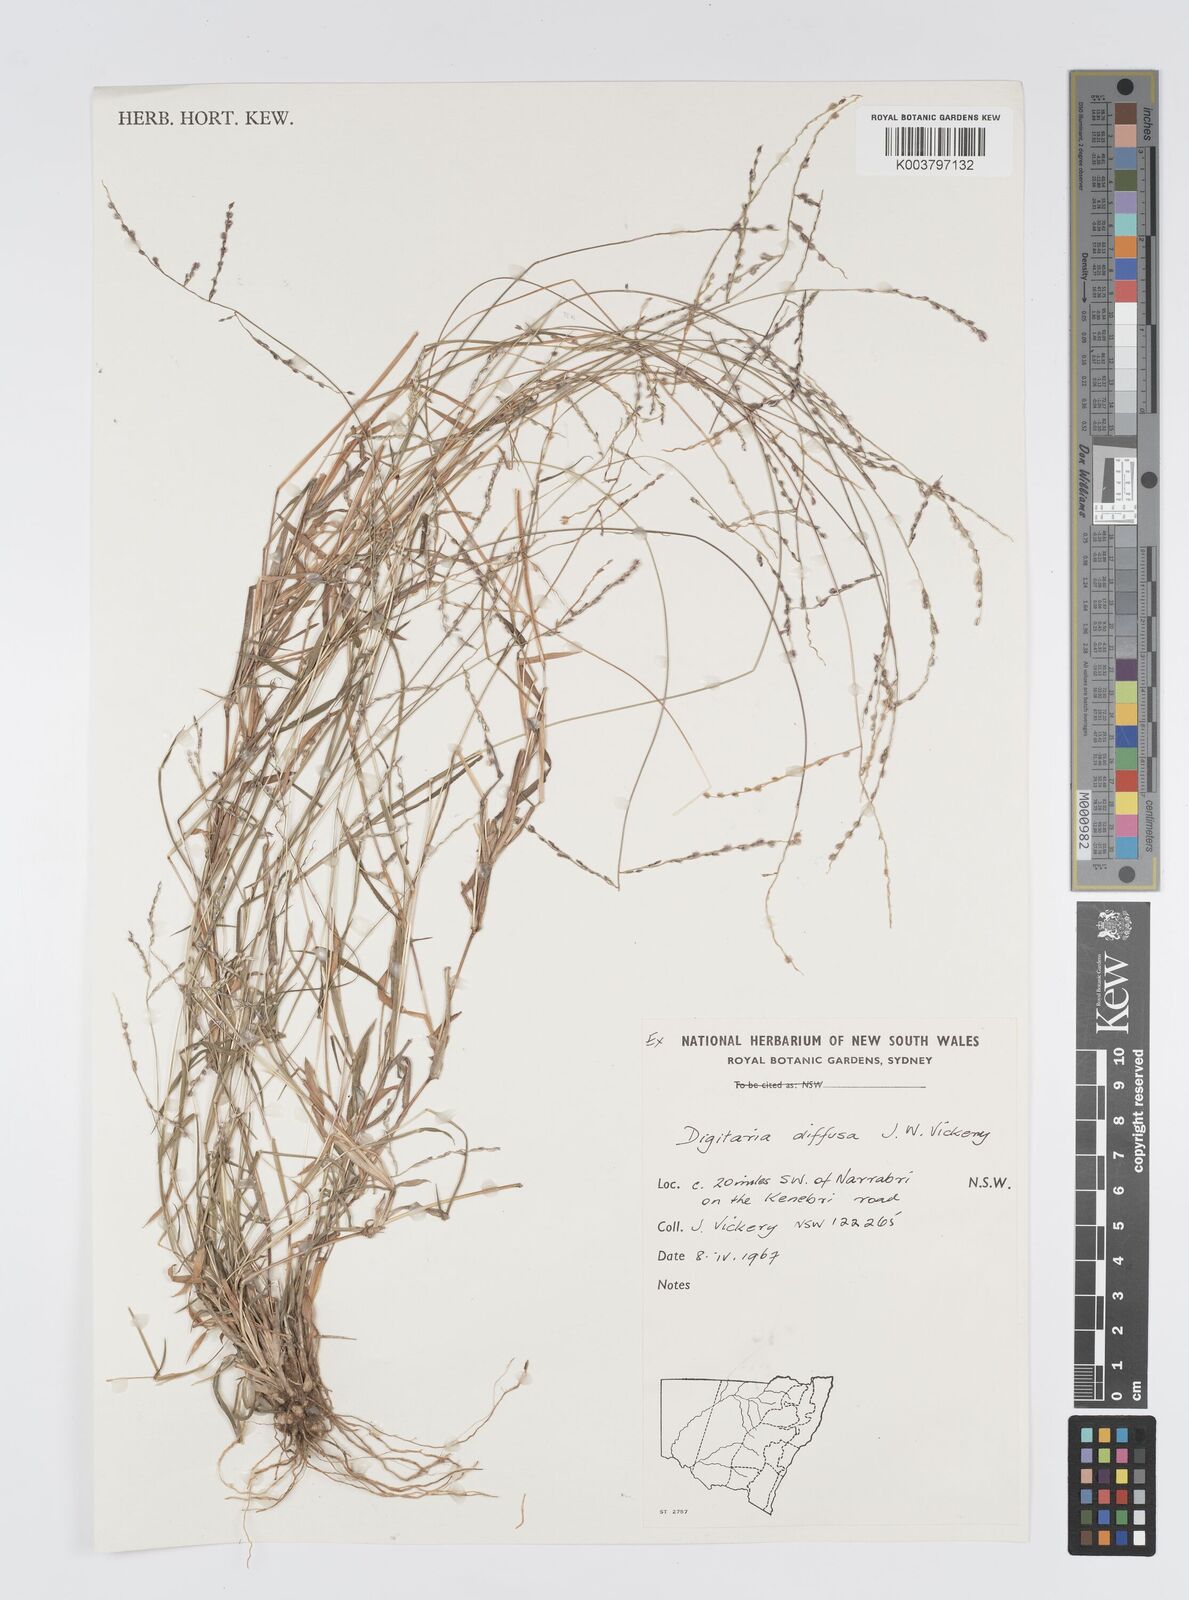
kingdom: Plantae
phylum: Tracheophyta
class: Liliopsida
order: Poales
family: Poaceae
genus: Digitaria
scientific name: Digitaria diffusa
